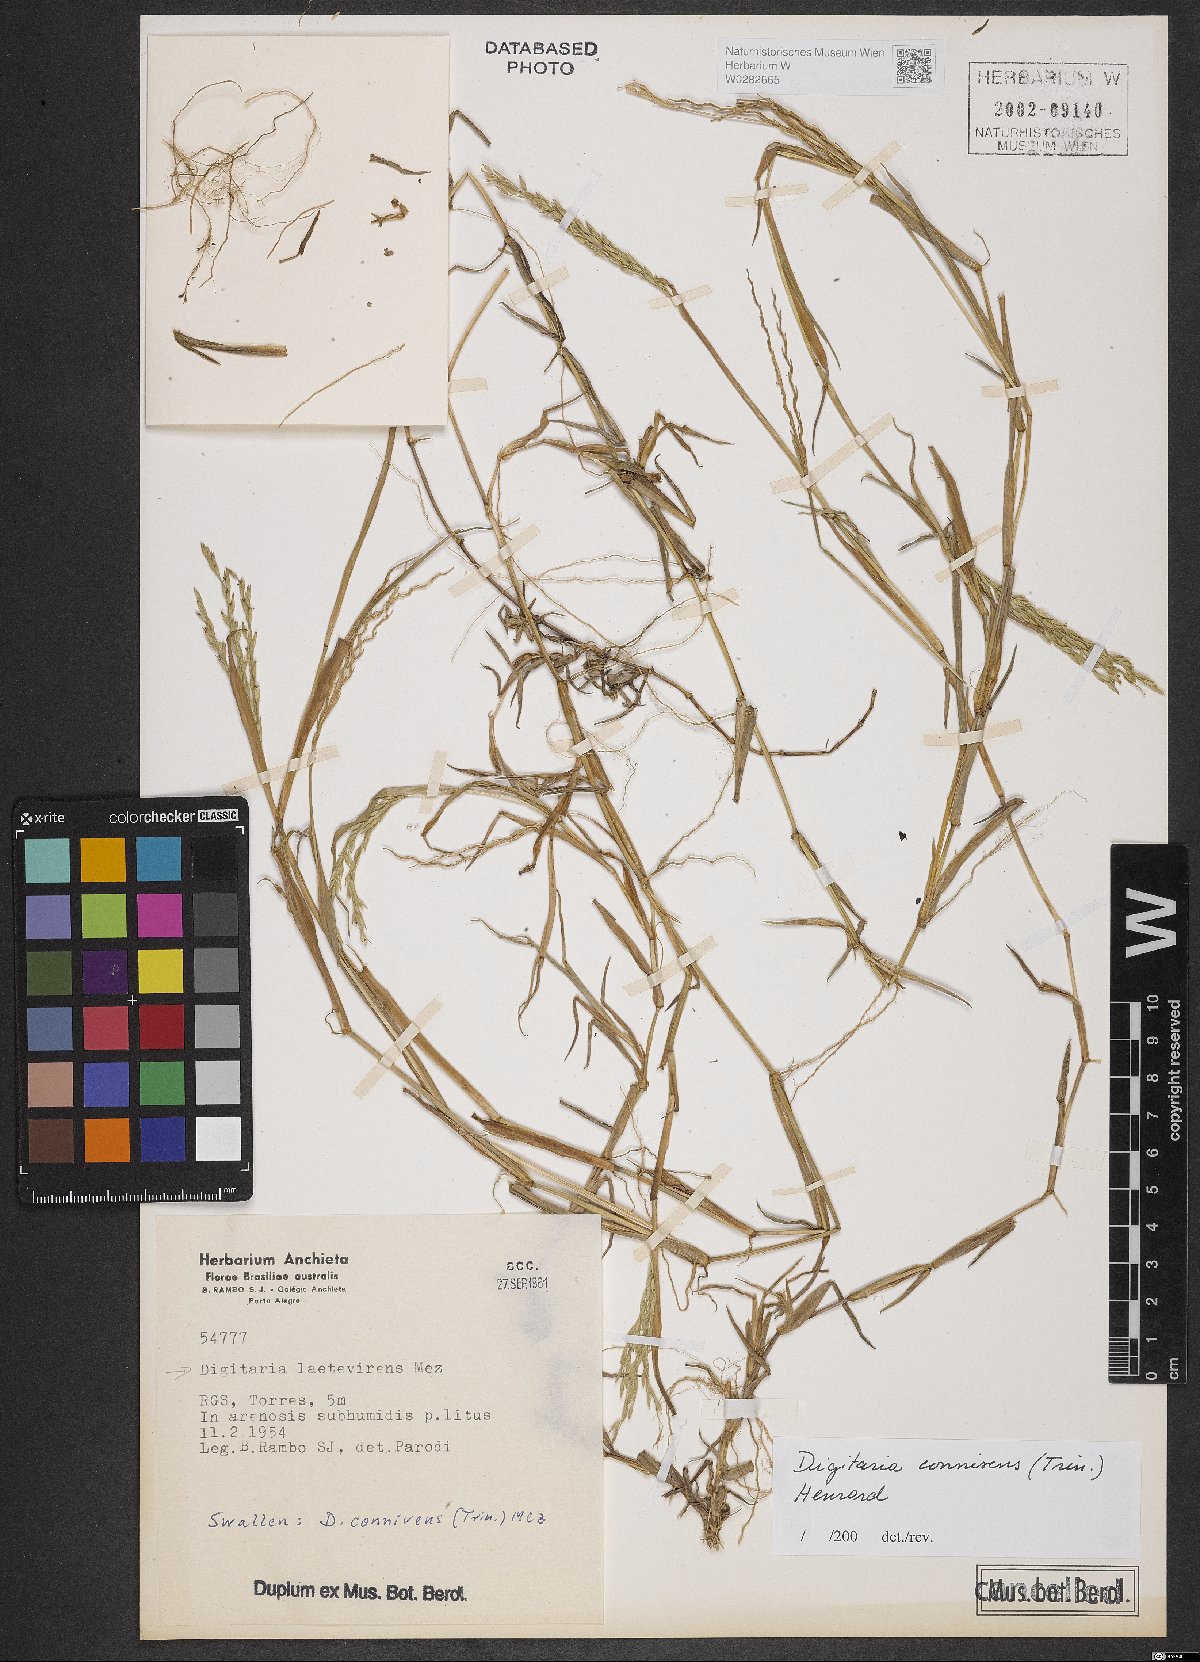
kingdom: Plantae
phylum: Tracheophyta
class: Liliopsida
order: Poales
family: Poaceae
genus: Digitaria
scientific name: Digitaria connivens
